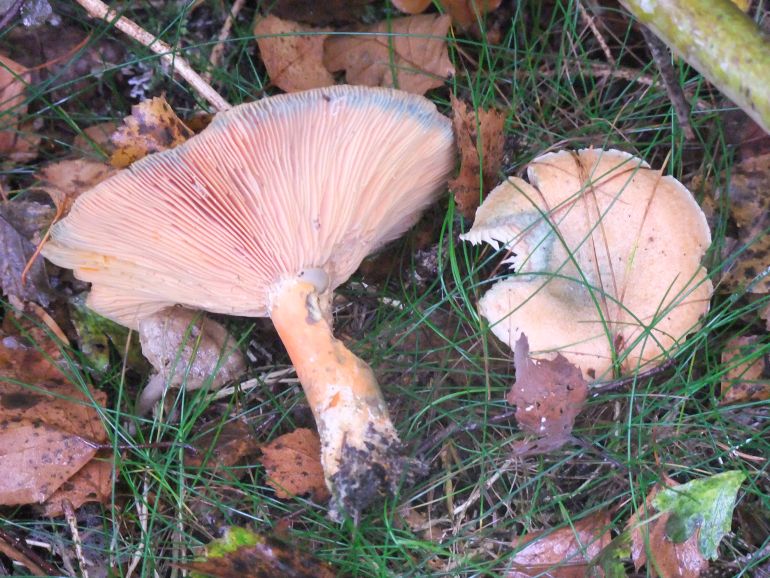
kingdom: Fungi
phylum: Basidiomycota
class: Agaricomycetes
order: Russulales
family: Russulaceae
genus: Lactarius
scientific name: Lactarius deterrimus
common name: gran-mælkehat
